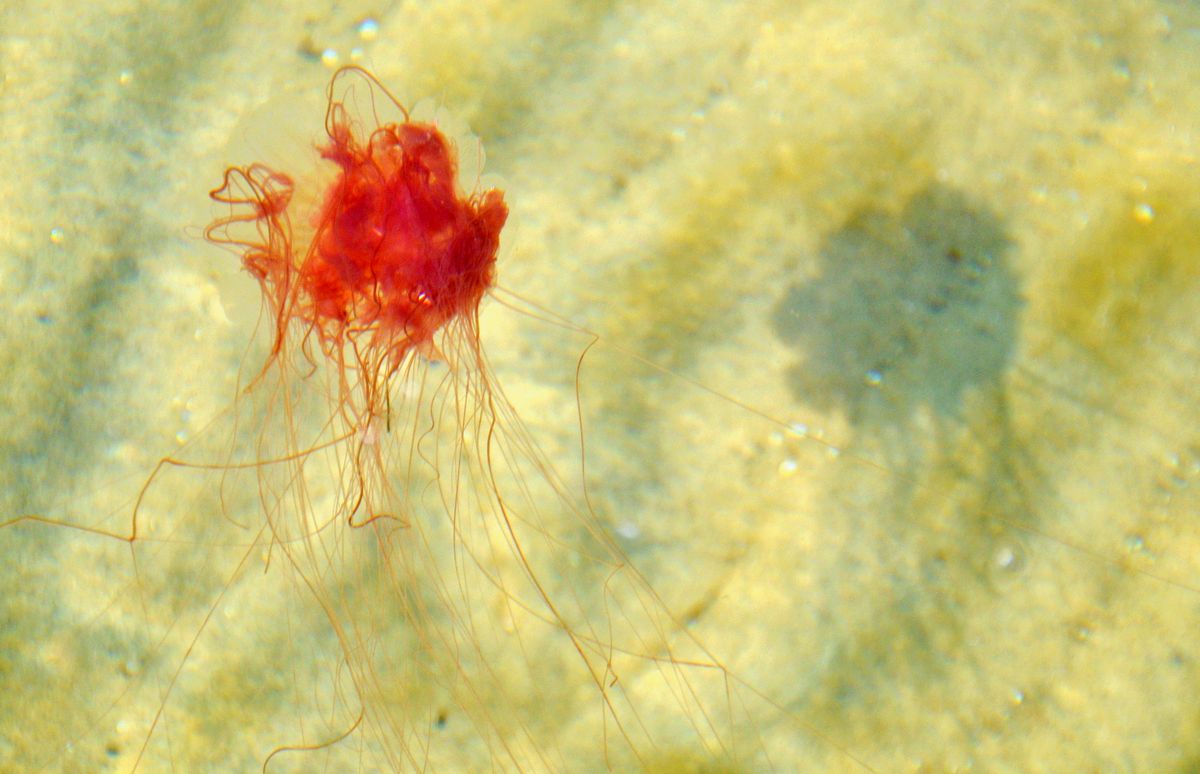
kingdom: Animalia
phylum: Cnidaria
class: Scyphozoa
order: Semaeostomeae
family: Cyaneidae
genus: Cyanea
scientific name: Cyanea capillata
